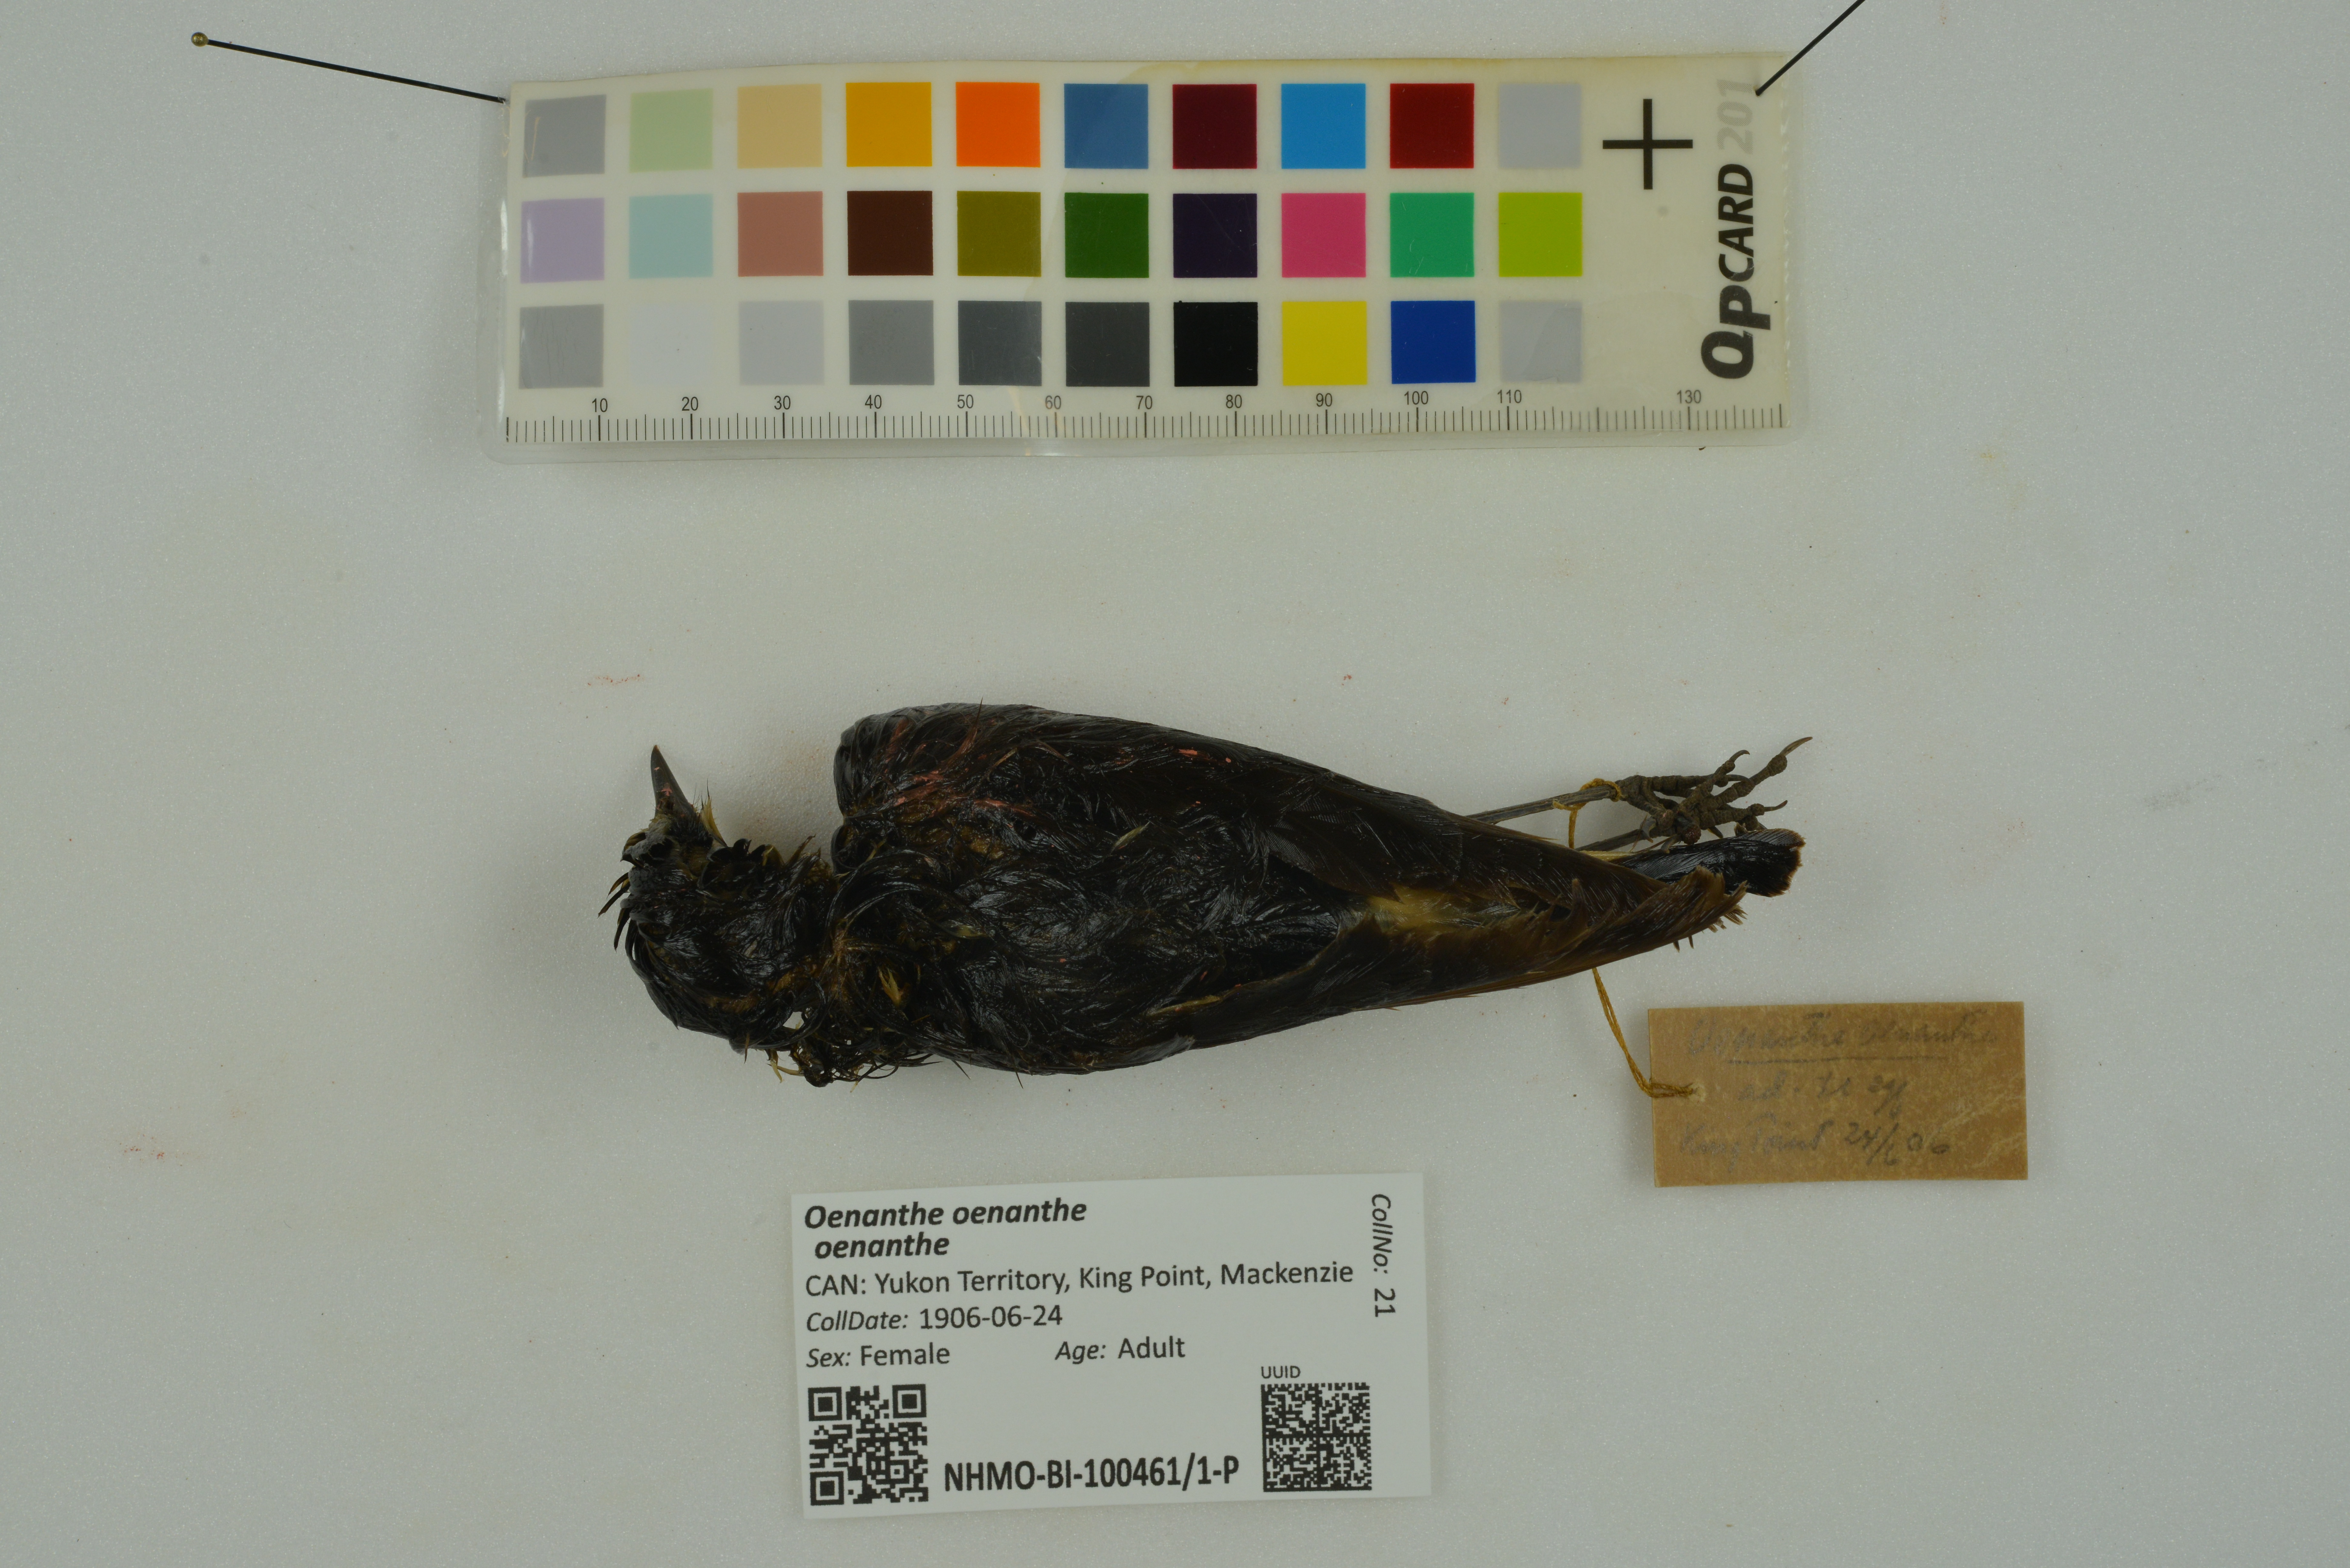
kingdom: Animalia
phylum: Chordata
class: Aves
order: Passeriformes
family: Muscicapidae
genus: Oenanthe
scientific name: Oenanthe oenanthe
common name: Northern wheatear
